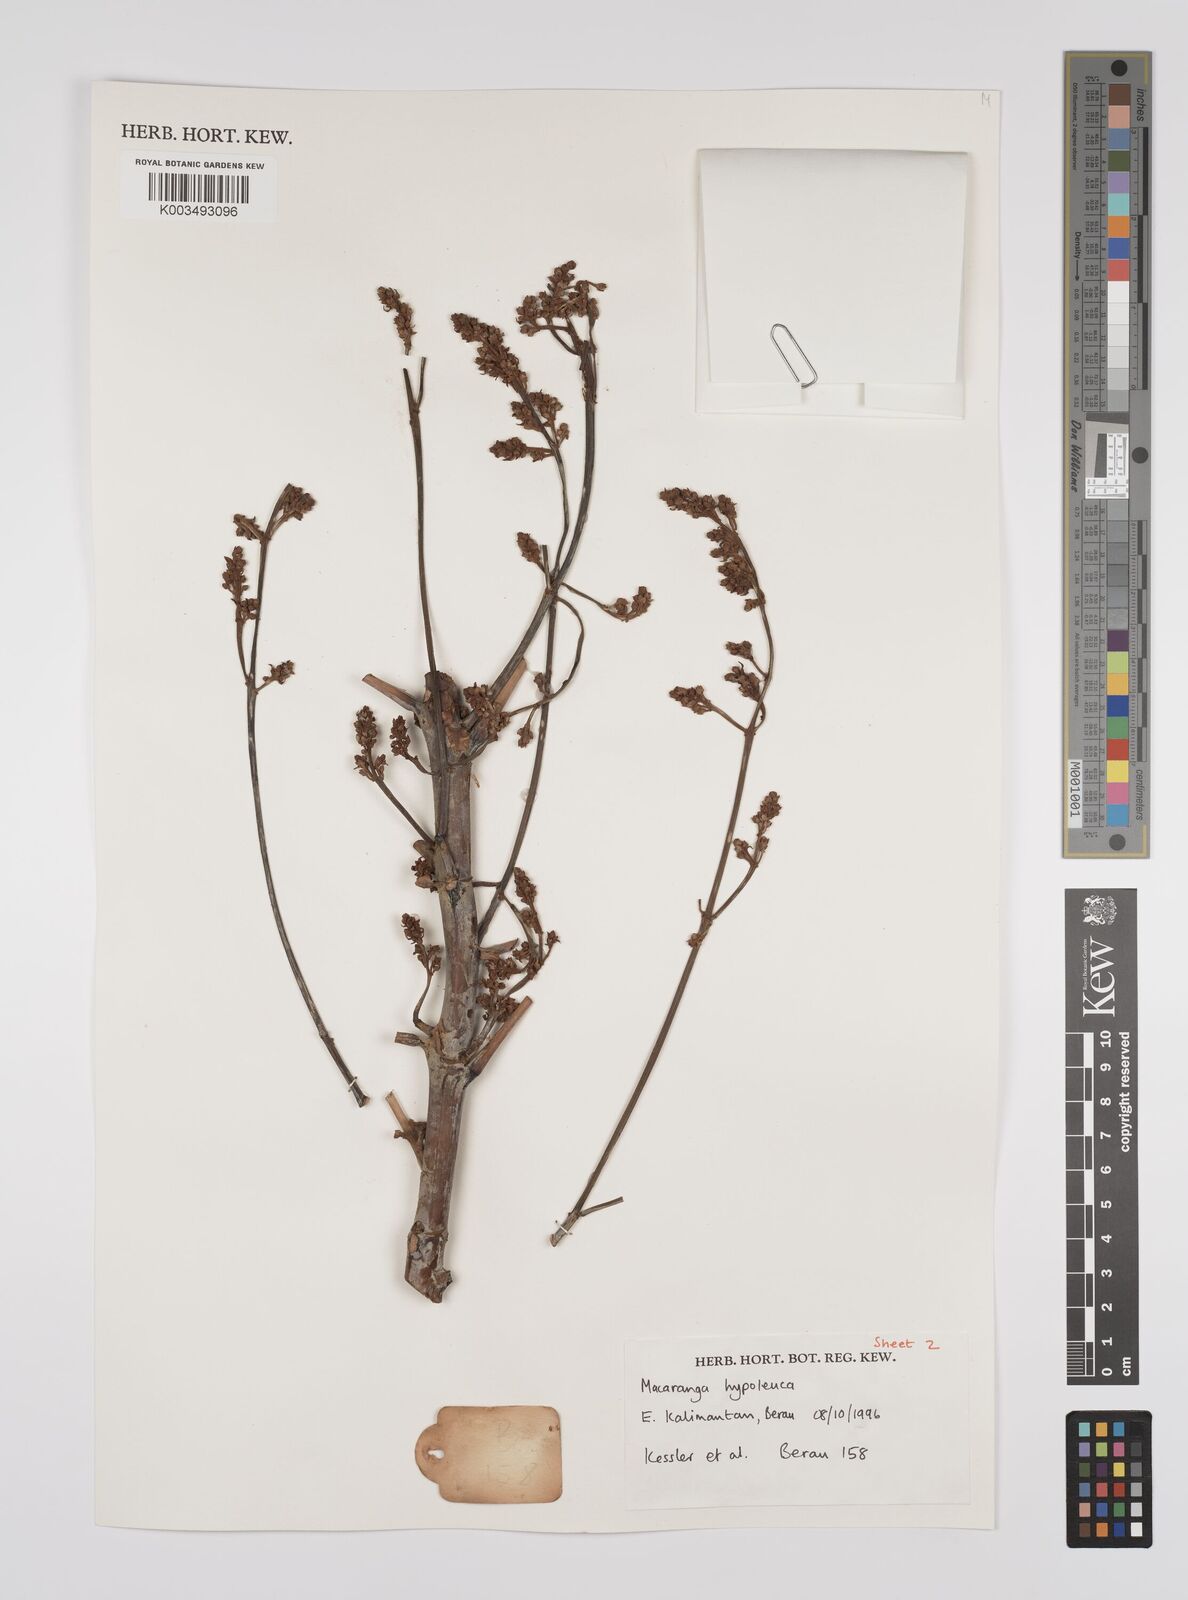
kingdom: Plantae
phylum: Tracheophyta
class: Magnoliopsida
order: Malpighiales
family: Euphorbiaceae
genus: Macaranga
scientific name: Macaranga hypoleuca
